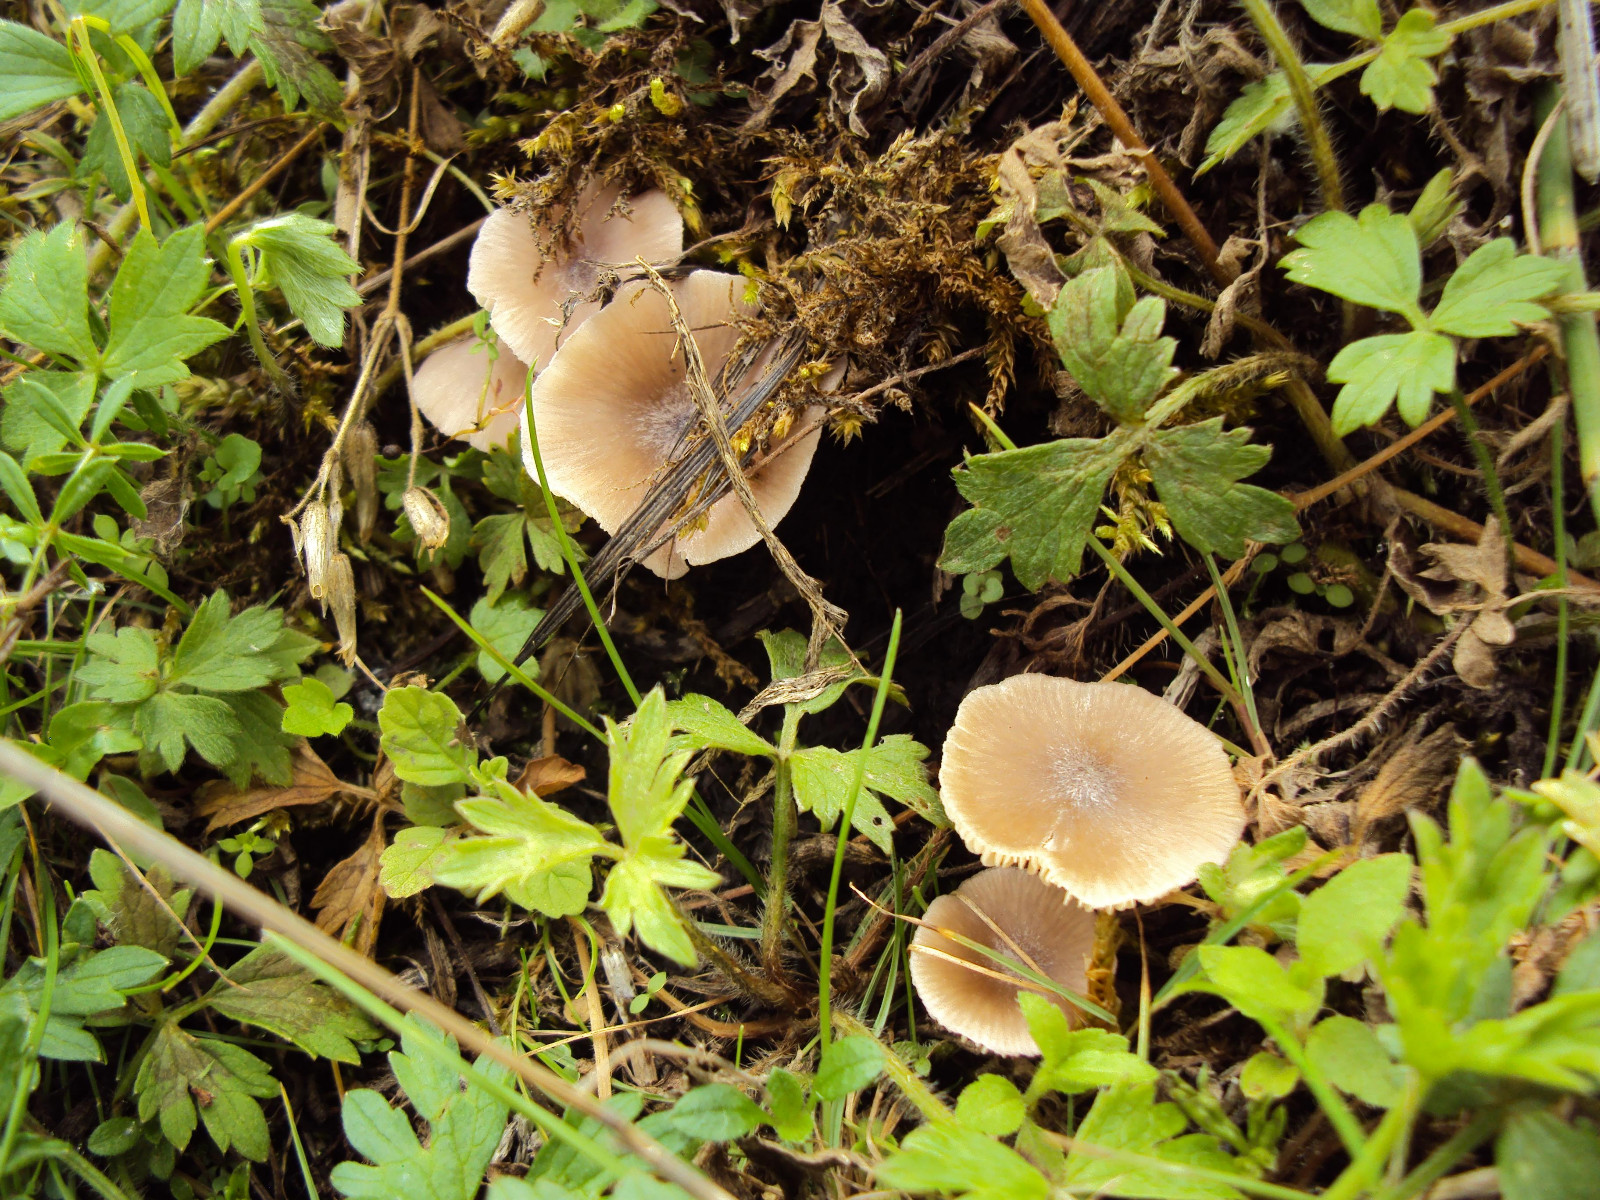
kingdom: Fungi
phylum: Basidiomycota
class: Agaricomycetes
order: Agaricales
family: Entolomataceae
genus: Entoloma
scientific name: Entoloma
